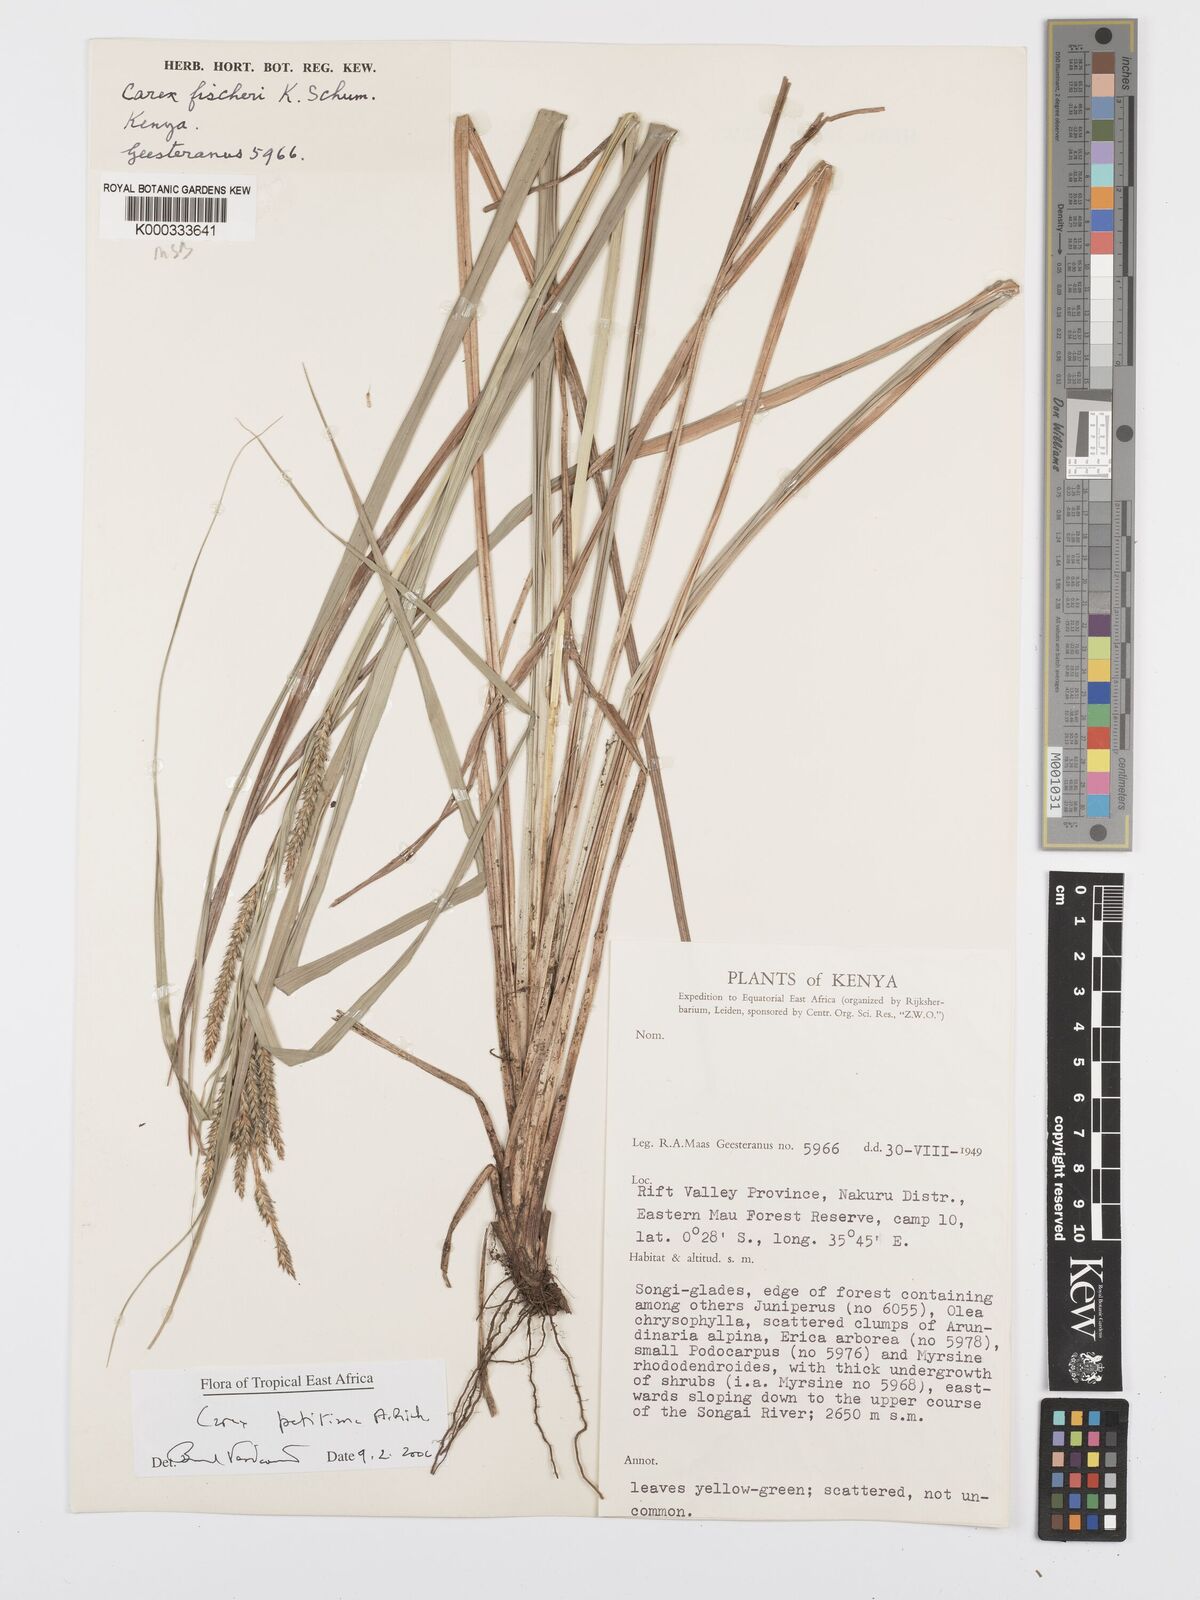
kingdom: Plantae
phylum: Tracheophyta
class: Liliopsida
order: Poales
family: Cyperaceae
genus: Carex
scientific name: Carex petitiana
